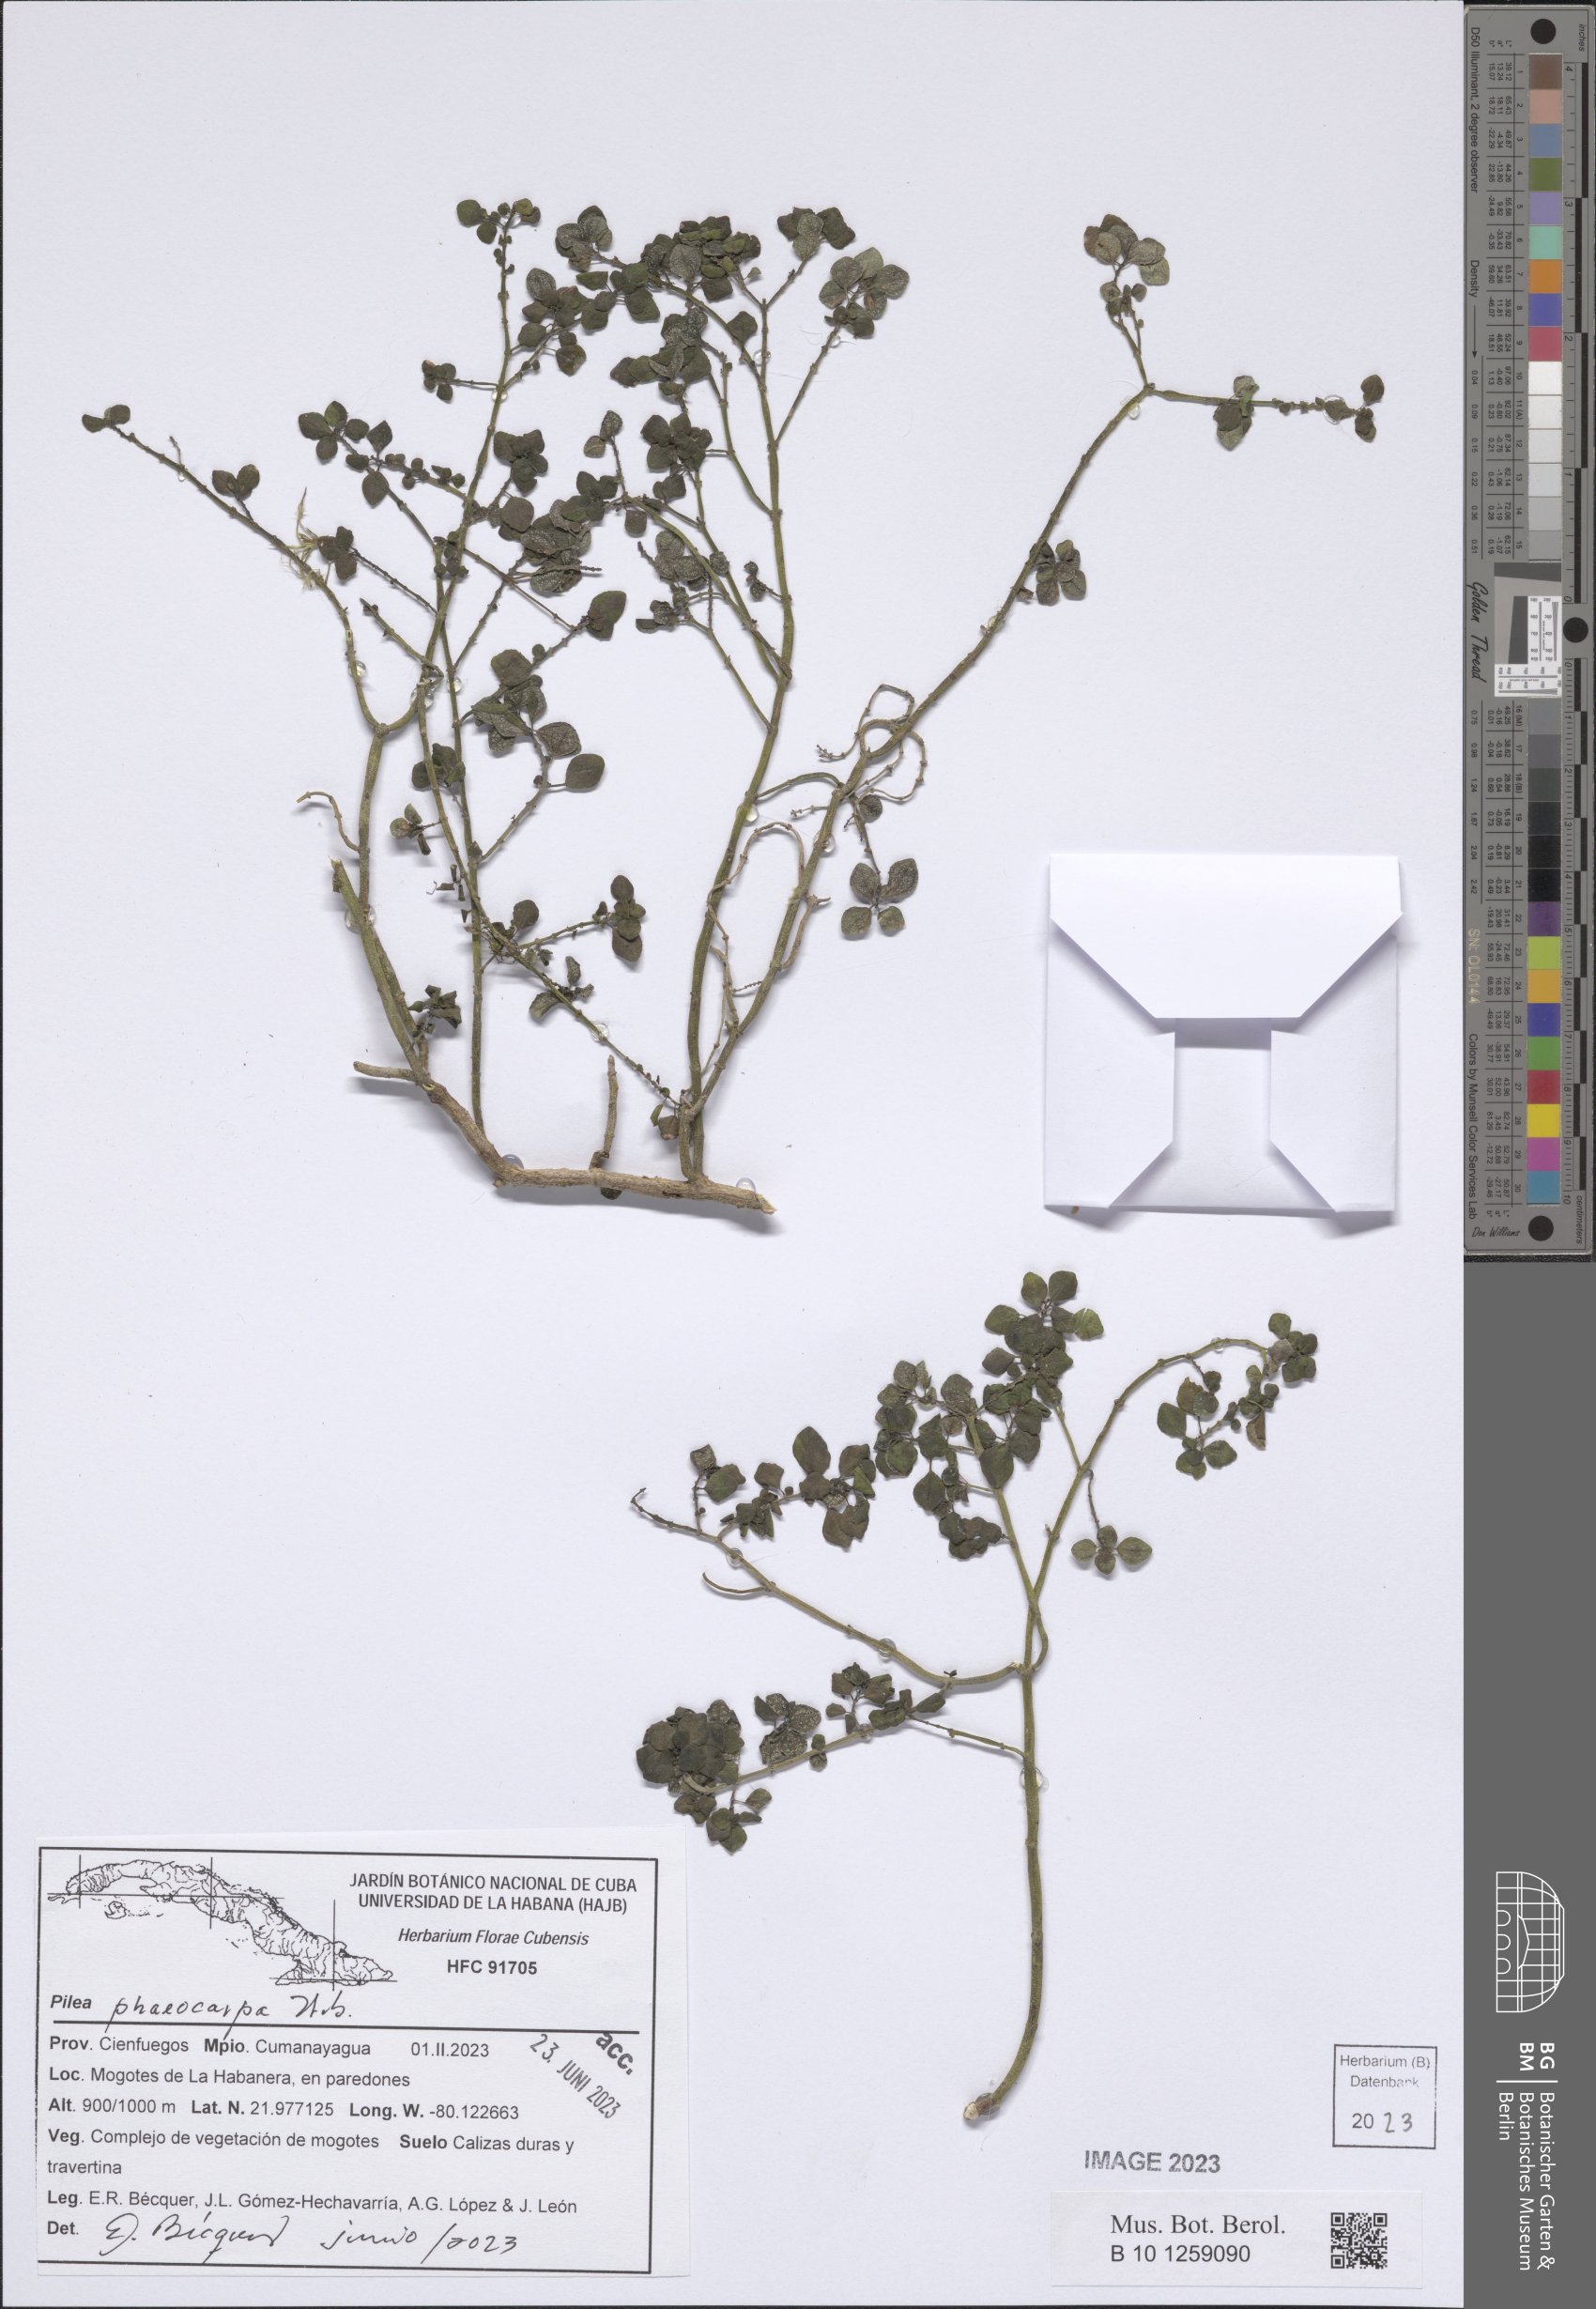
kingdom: Plantae
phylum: Tracheophyta
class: Magnoliopsida
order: Rosales
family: Urticaceae
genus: Pilea
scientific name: Pilea phaeocarpa
